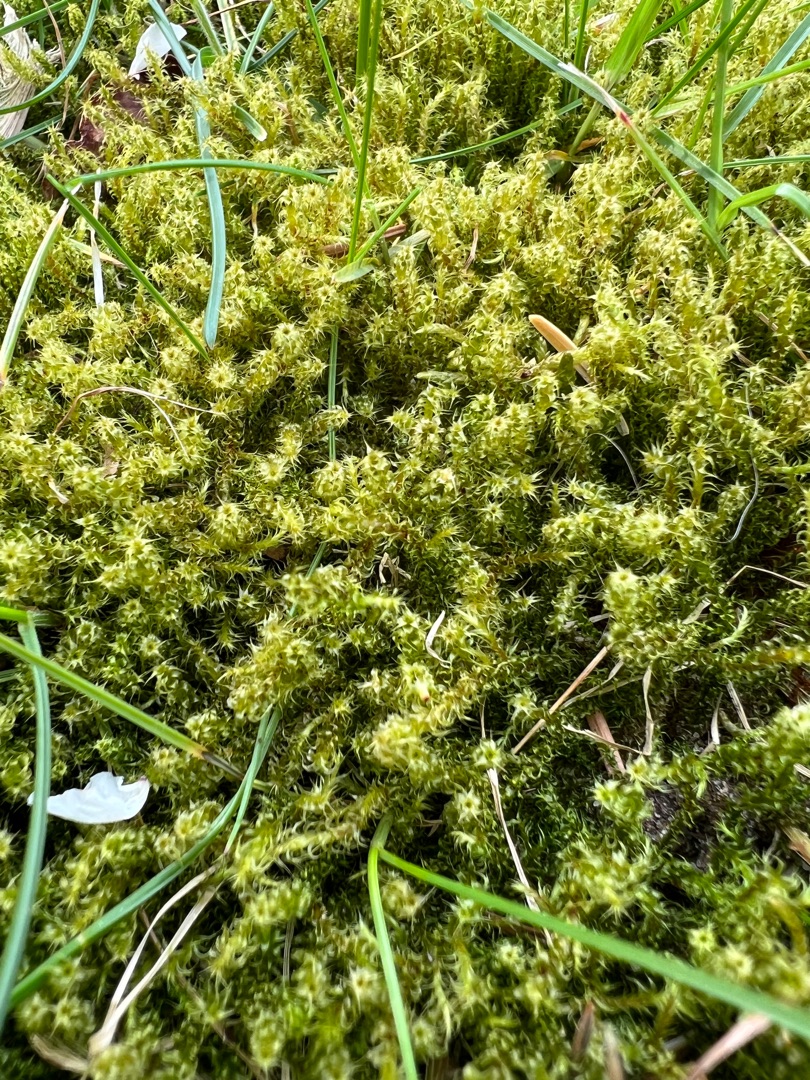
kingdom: Plantae
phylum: Bryophyta
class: Bryopsida
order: Hypnales
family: Hylocomiaceae
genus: Rhytidiadelphus
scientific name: Rhytidiadelphus squarrosus
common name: Plæne-kransemos
